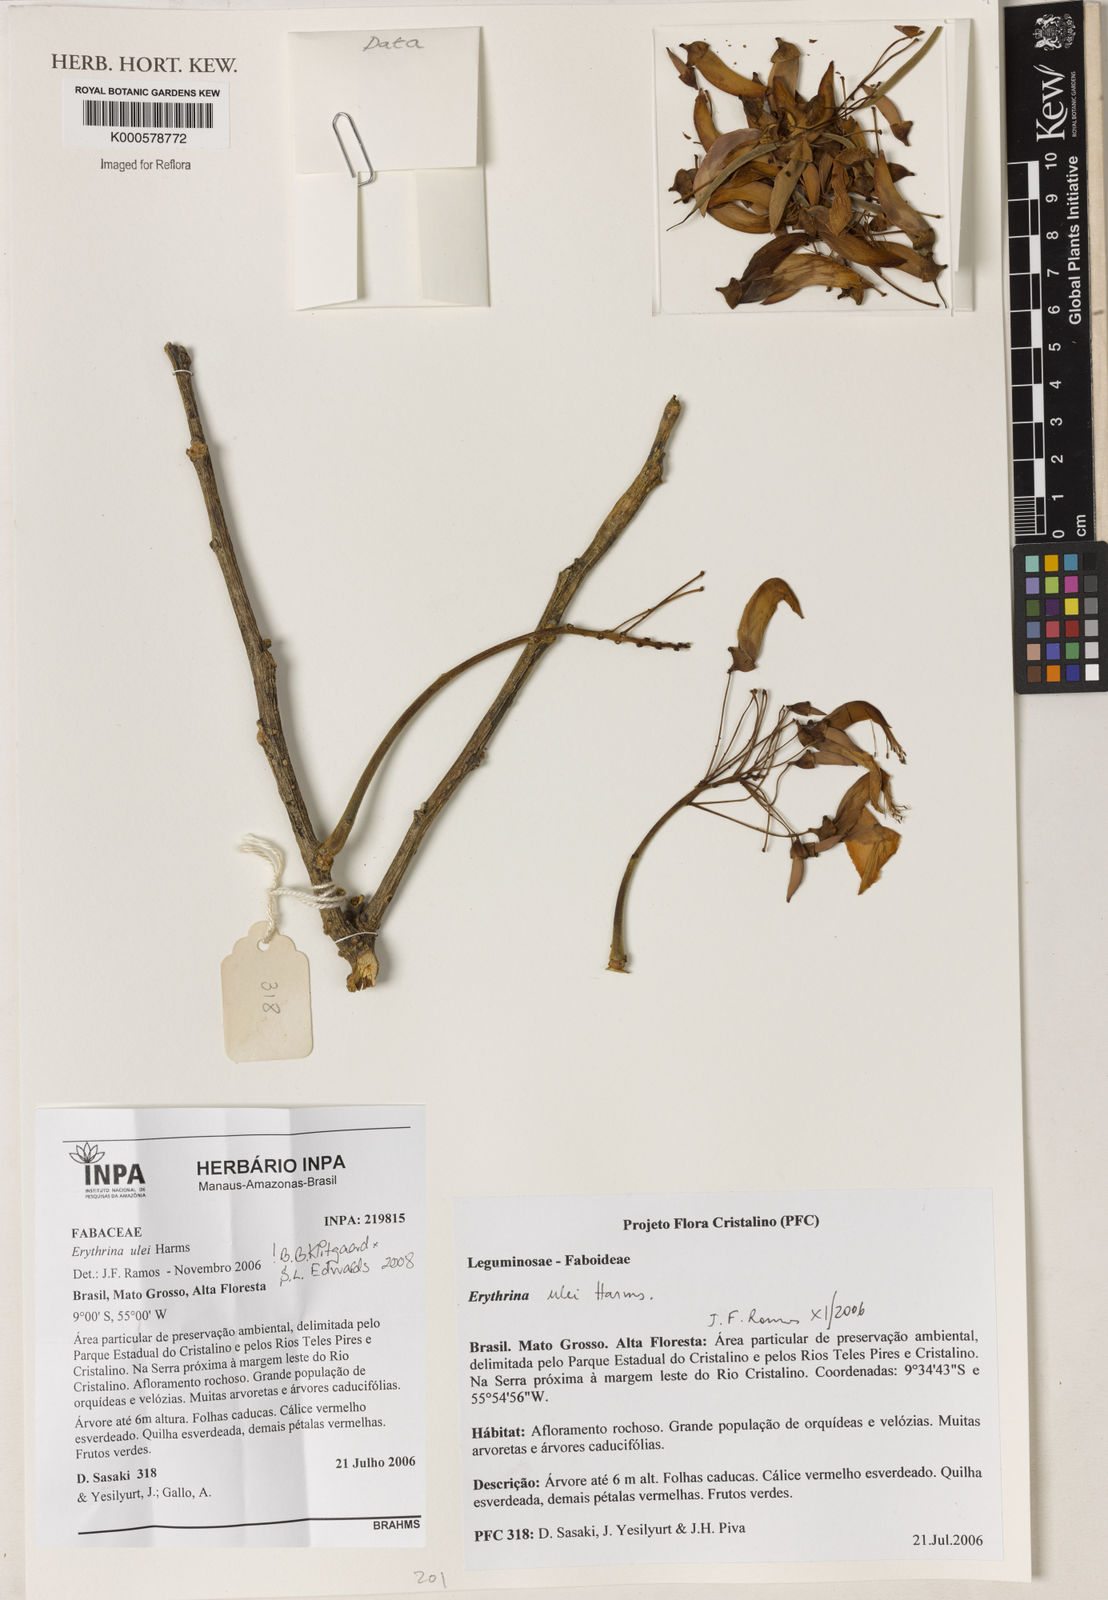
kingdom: Plantae
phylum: Tracheophyta
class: Magnoliopsida
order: Fabales
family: Fabaceae
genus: Erythrina
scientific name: Erythrina ulei
